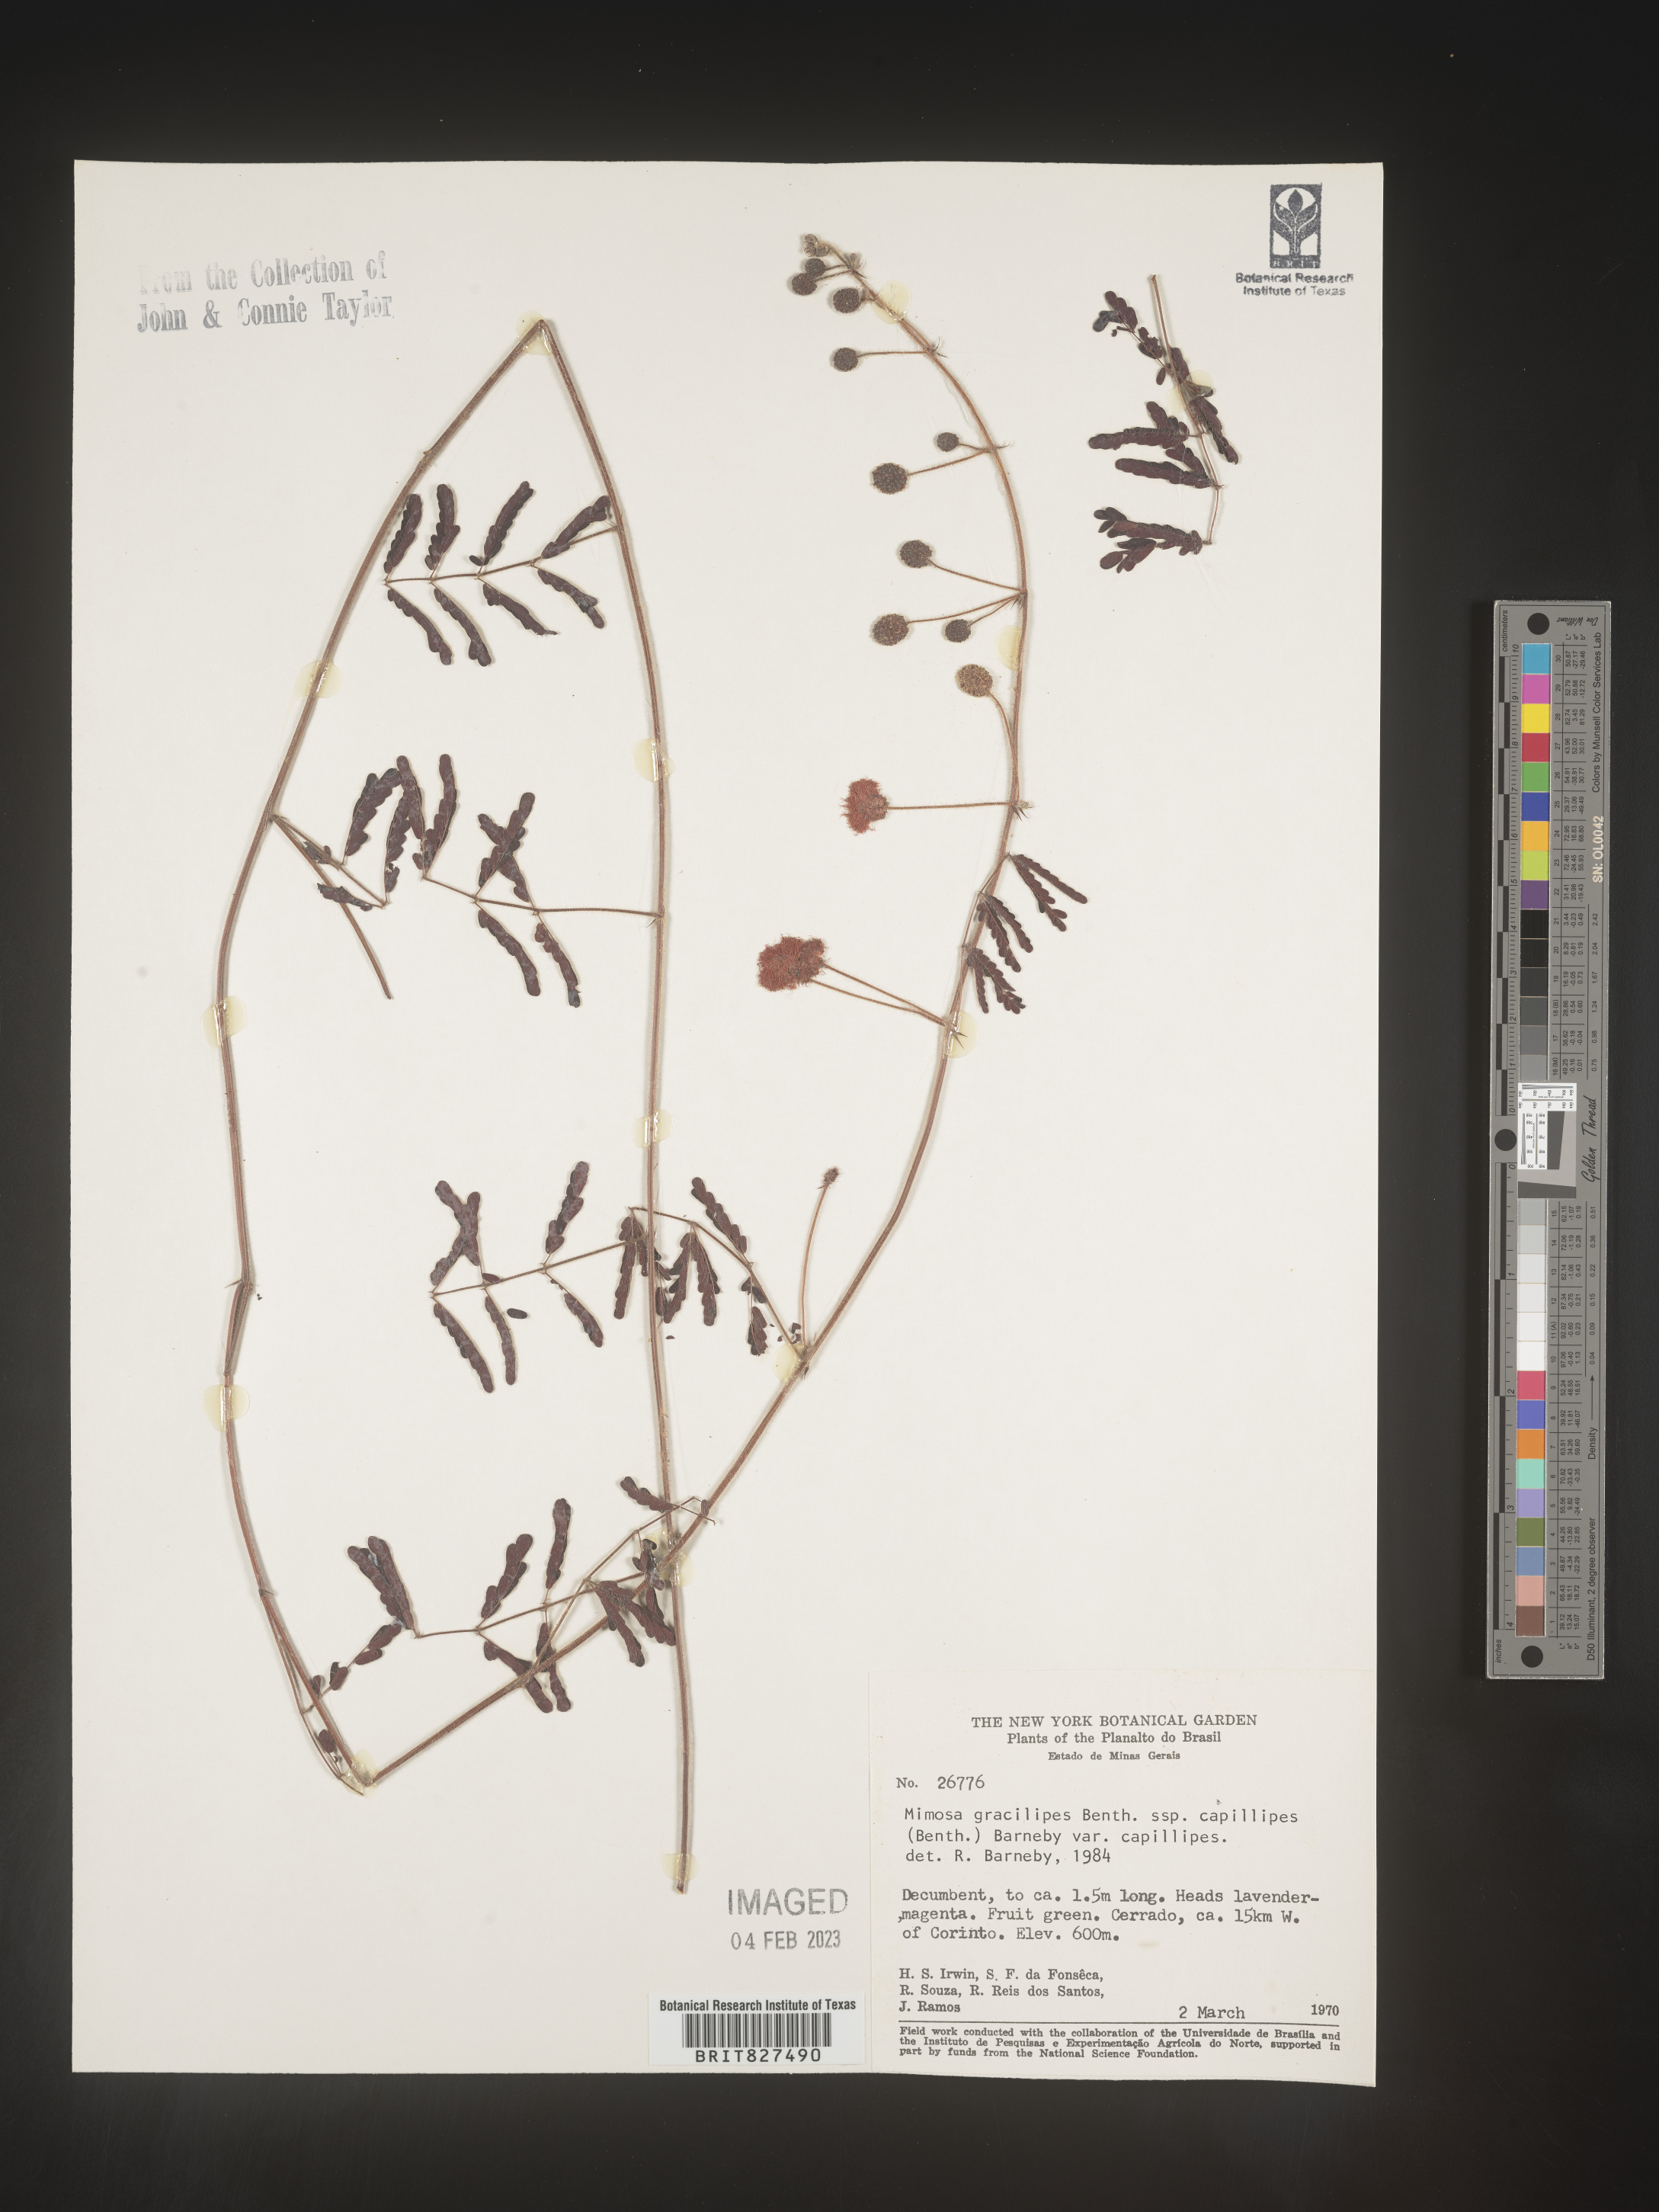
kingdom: Plantae
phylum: Tracheophyta
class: Magnoliopsida
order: Fabales
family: Fabaceae
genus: Mimosa
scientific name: Mimosa
